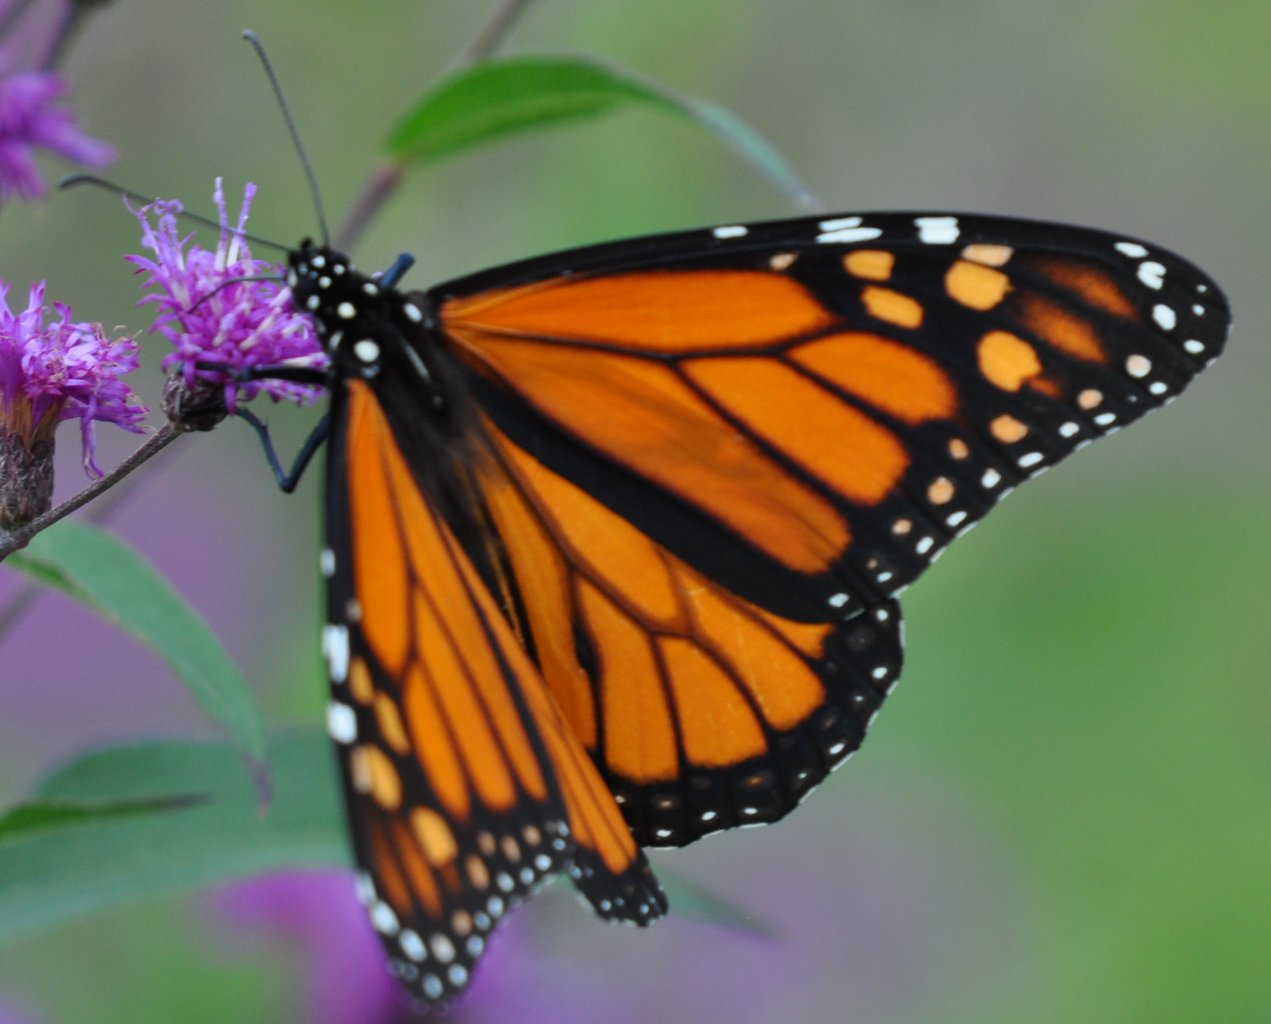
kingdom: Animalia
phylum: Arthropoda
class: Insecta
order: Lepidoptera
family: Nymphalidae
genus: Danaus
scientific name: Danaus plexippus
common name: Monarch
